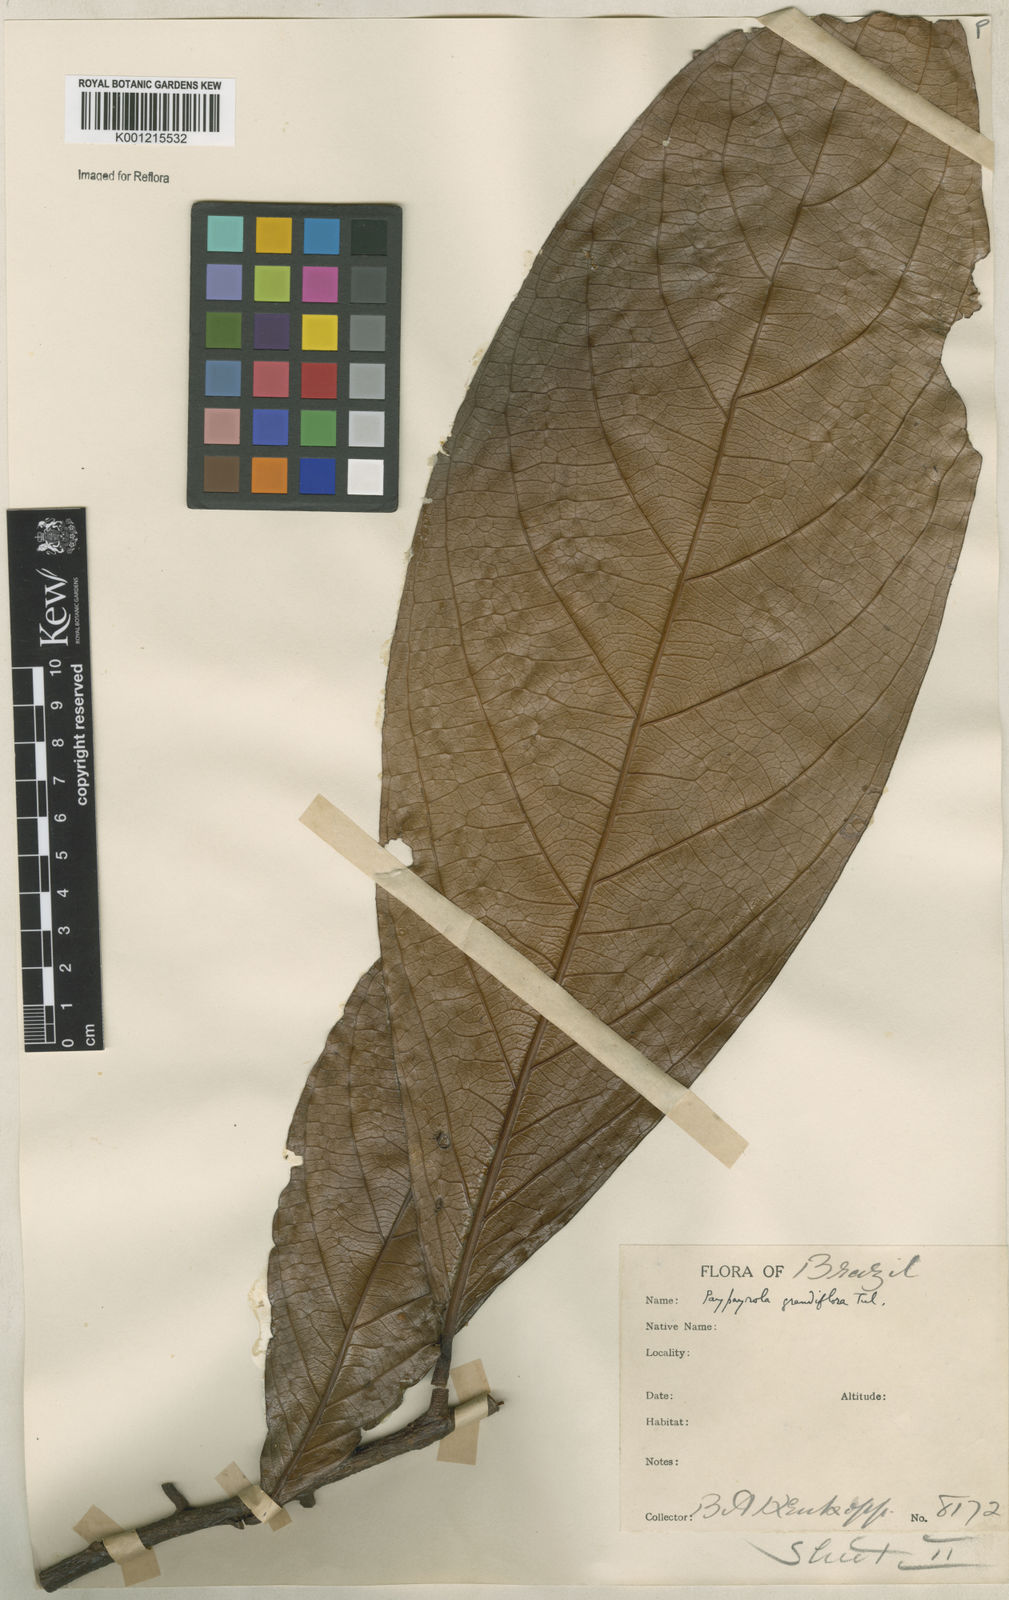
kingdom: Plantae
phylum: Tracheophyta
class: Magnoliopsida
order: Malpighiales
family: Violaceae
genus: Paypayrola
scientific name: Paypayrola grandiflora
